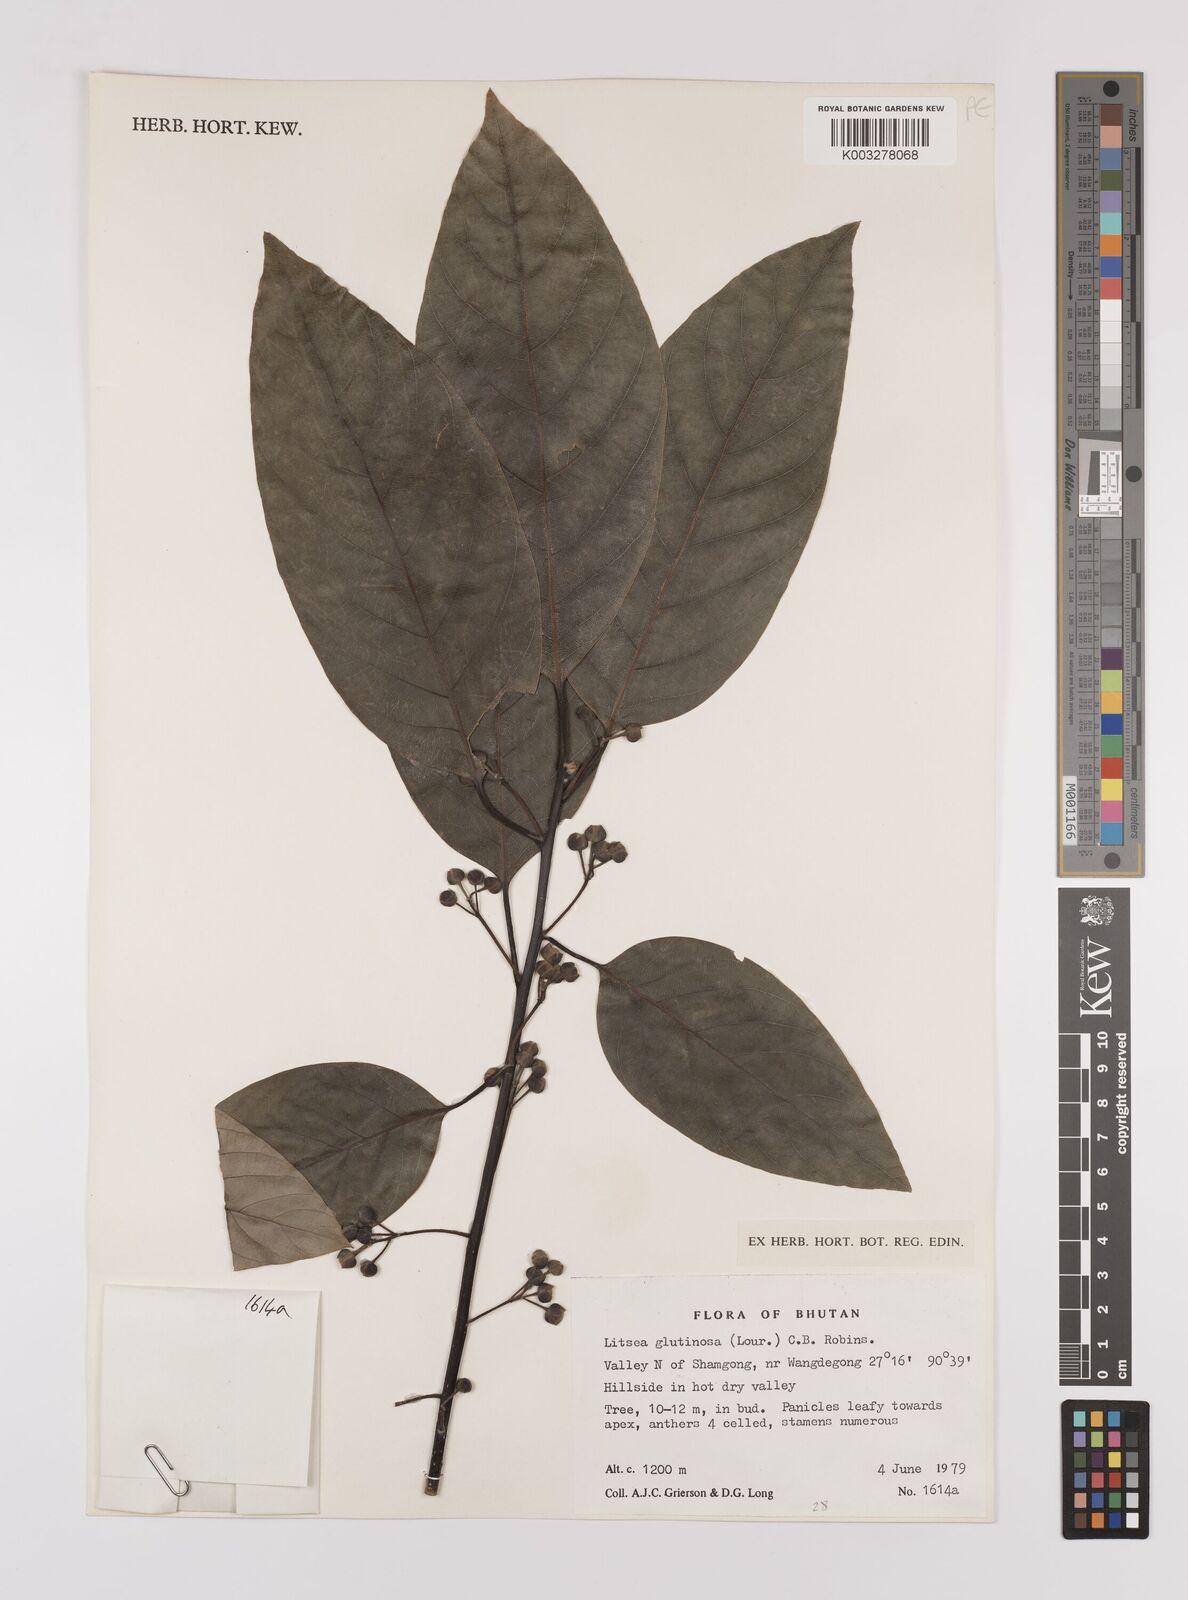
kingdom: Plantae
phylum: Tracheophyta
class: Magnoliopsida
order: Laurales
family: Lauraceae
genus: Litsea
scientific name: Litsea glutinosa
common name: Indian-laurel
